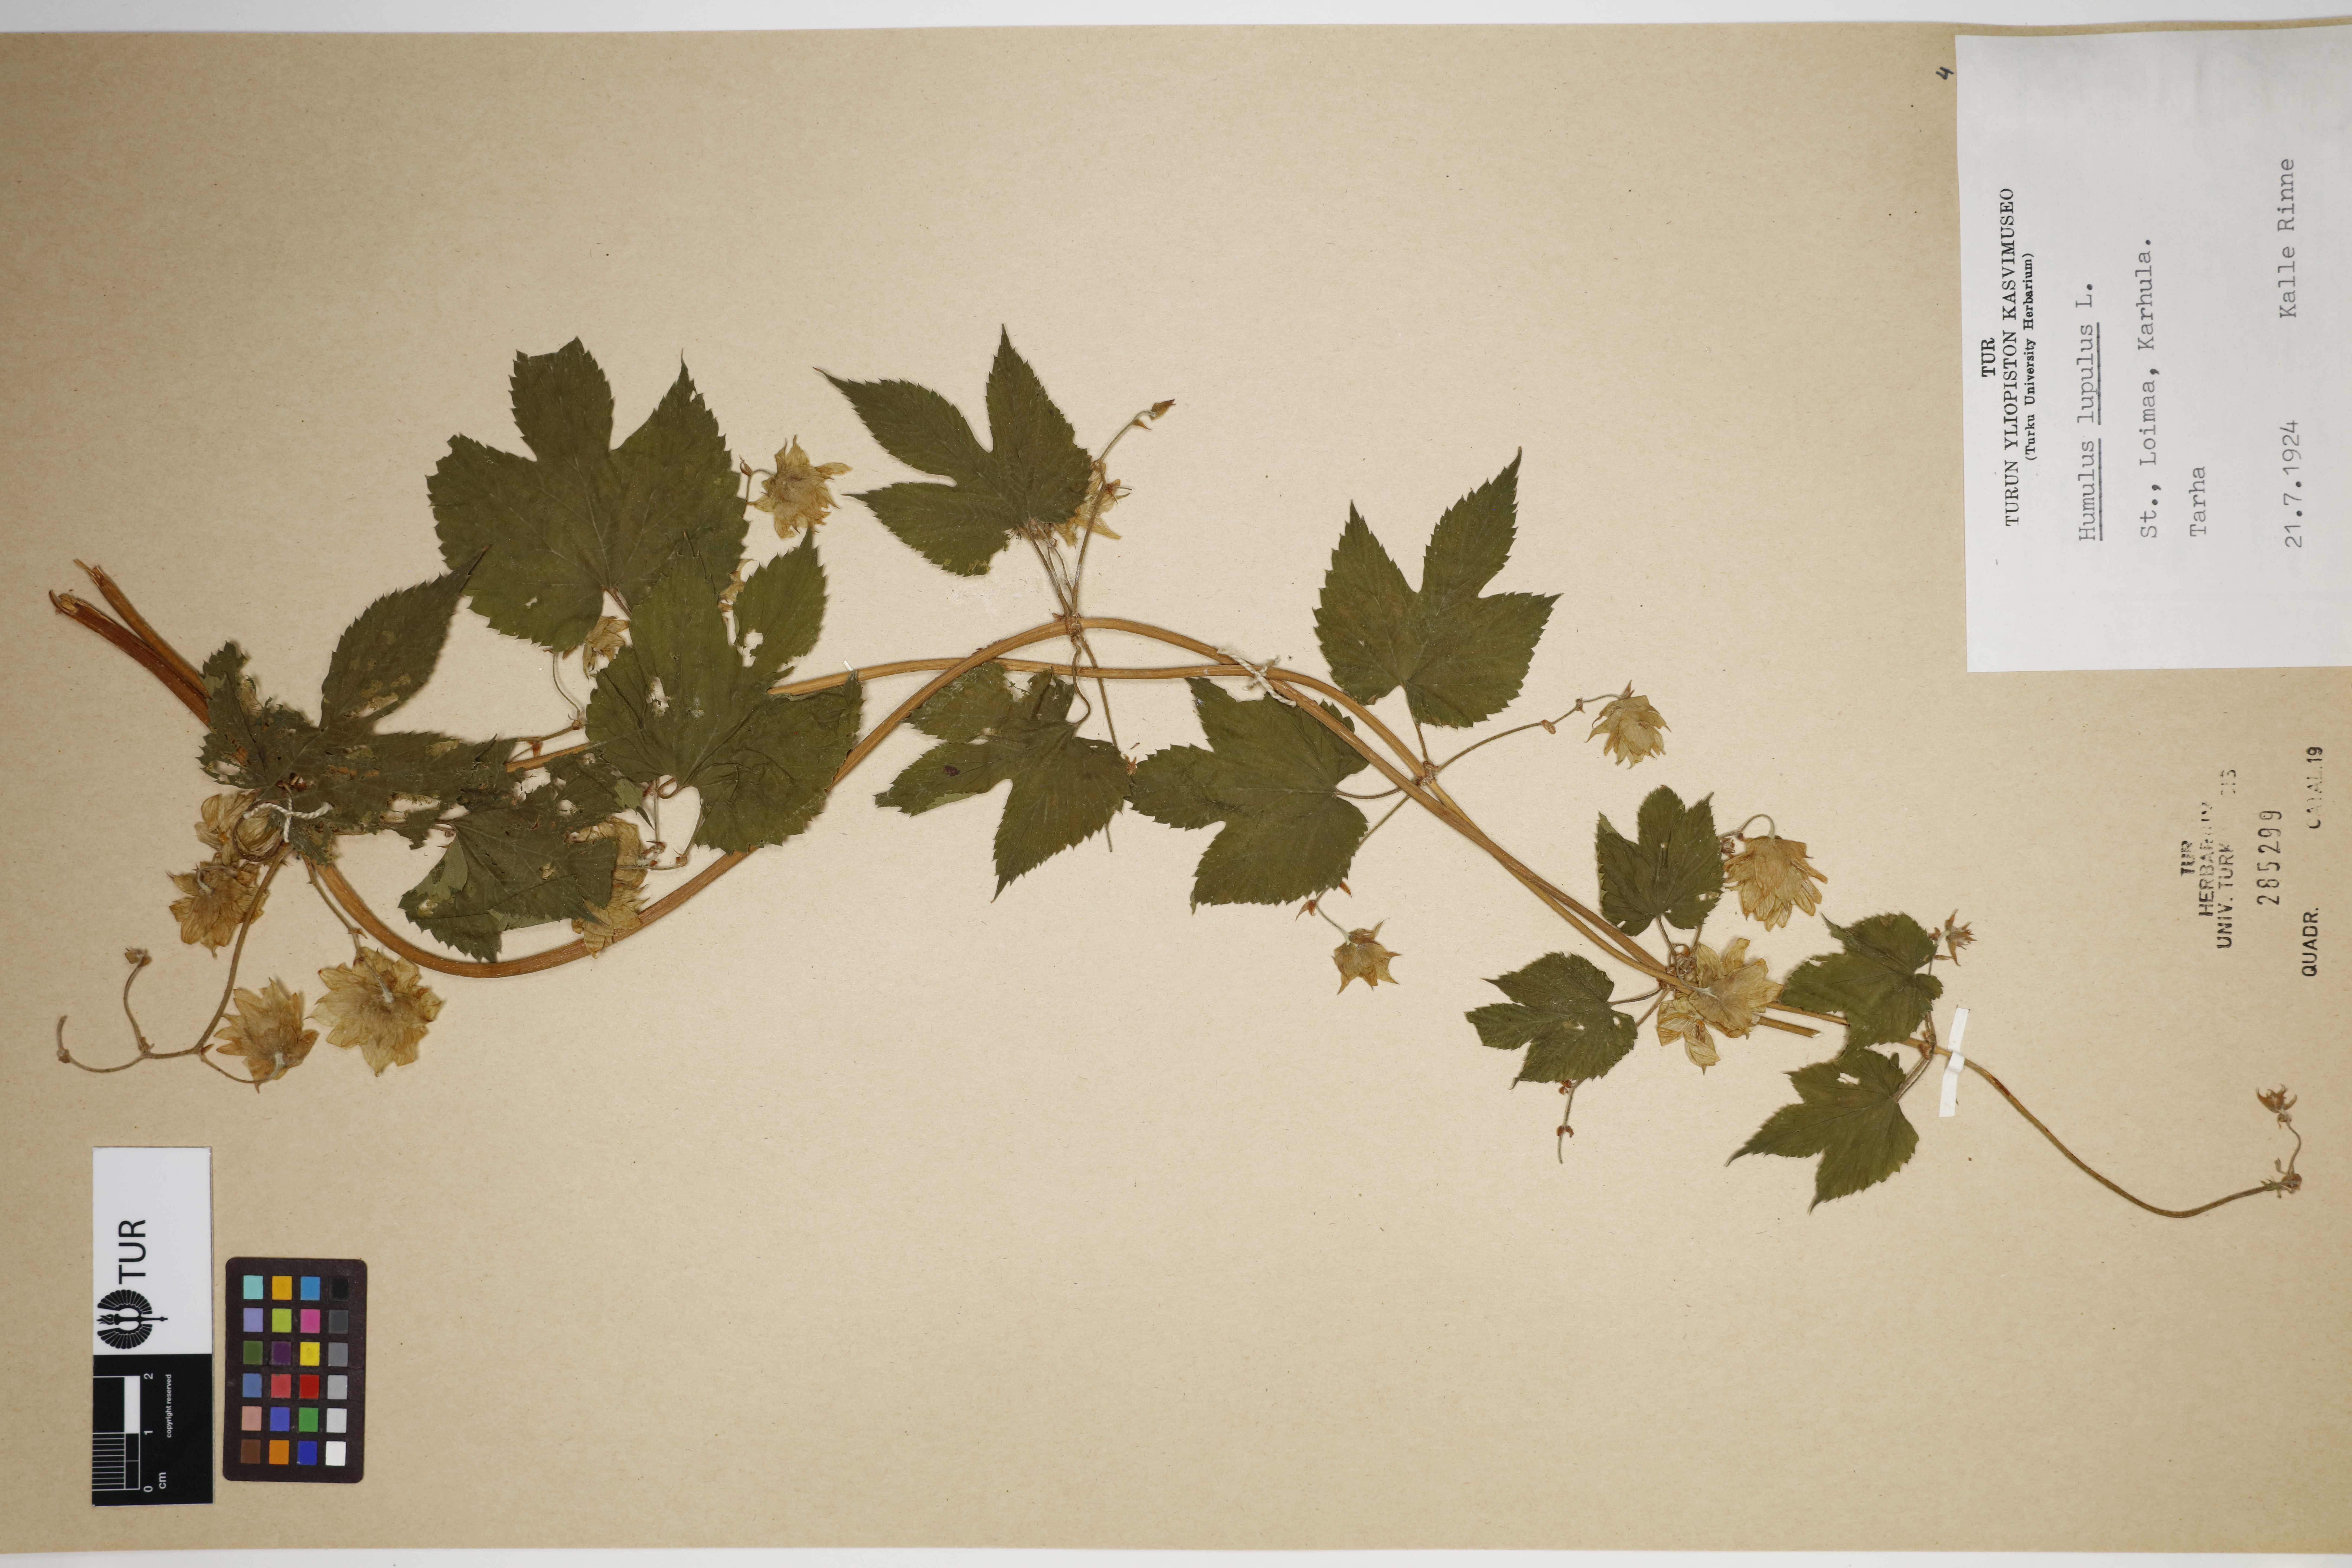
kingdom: Plantae
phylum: Tracheophyta
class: Magnoliopsida
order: Rosales
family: Cannabaceae
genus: Humulus
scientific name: Humulus lupulus
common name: Hop
